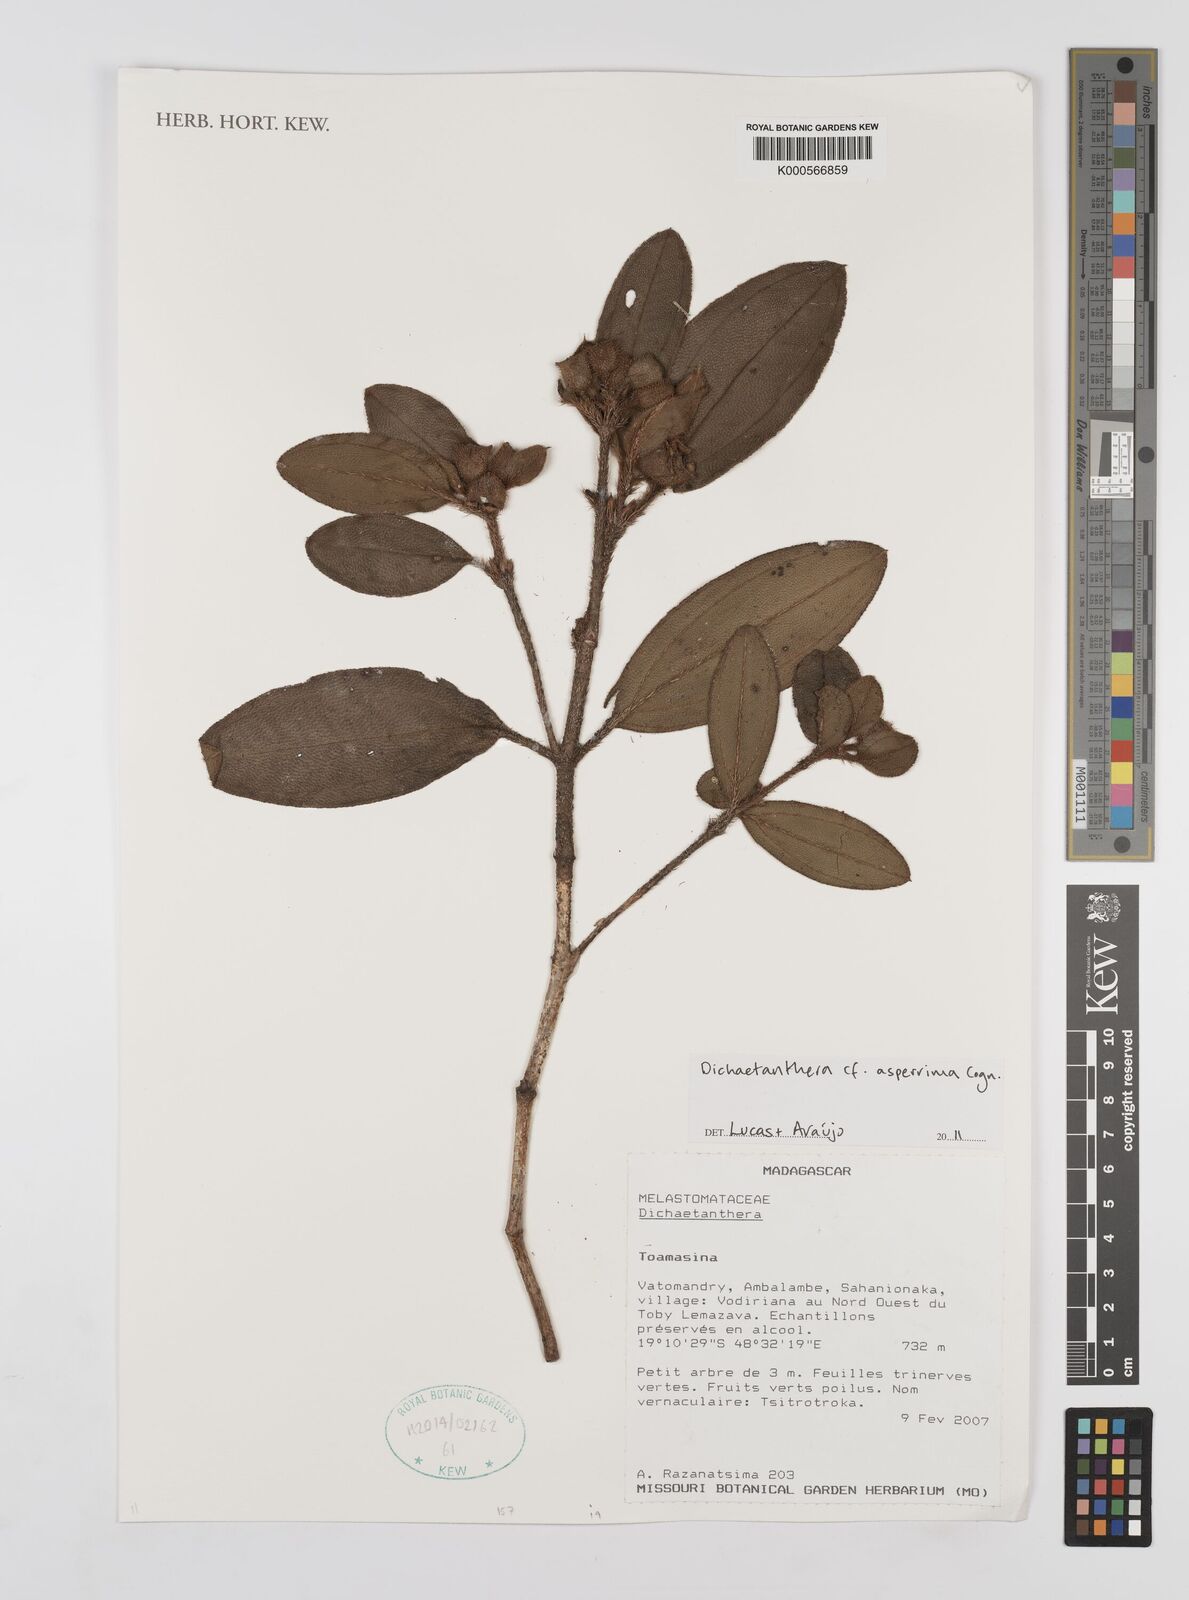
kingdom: Plantae
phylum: Tracheophyta
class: Magnoliopsida
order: Myrtales
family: Melastomataceae
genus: Dichaetanthera
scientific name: Dichaetanthera
